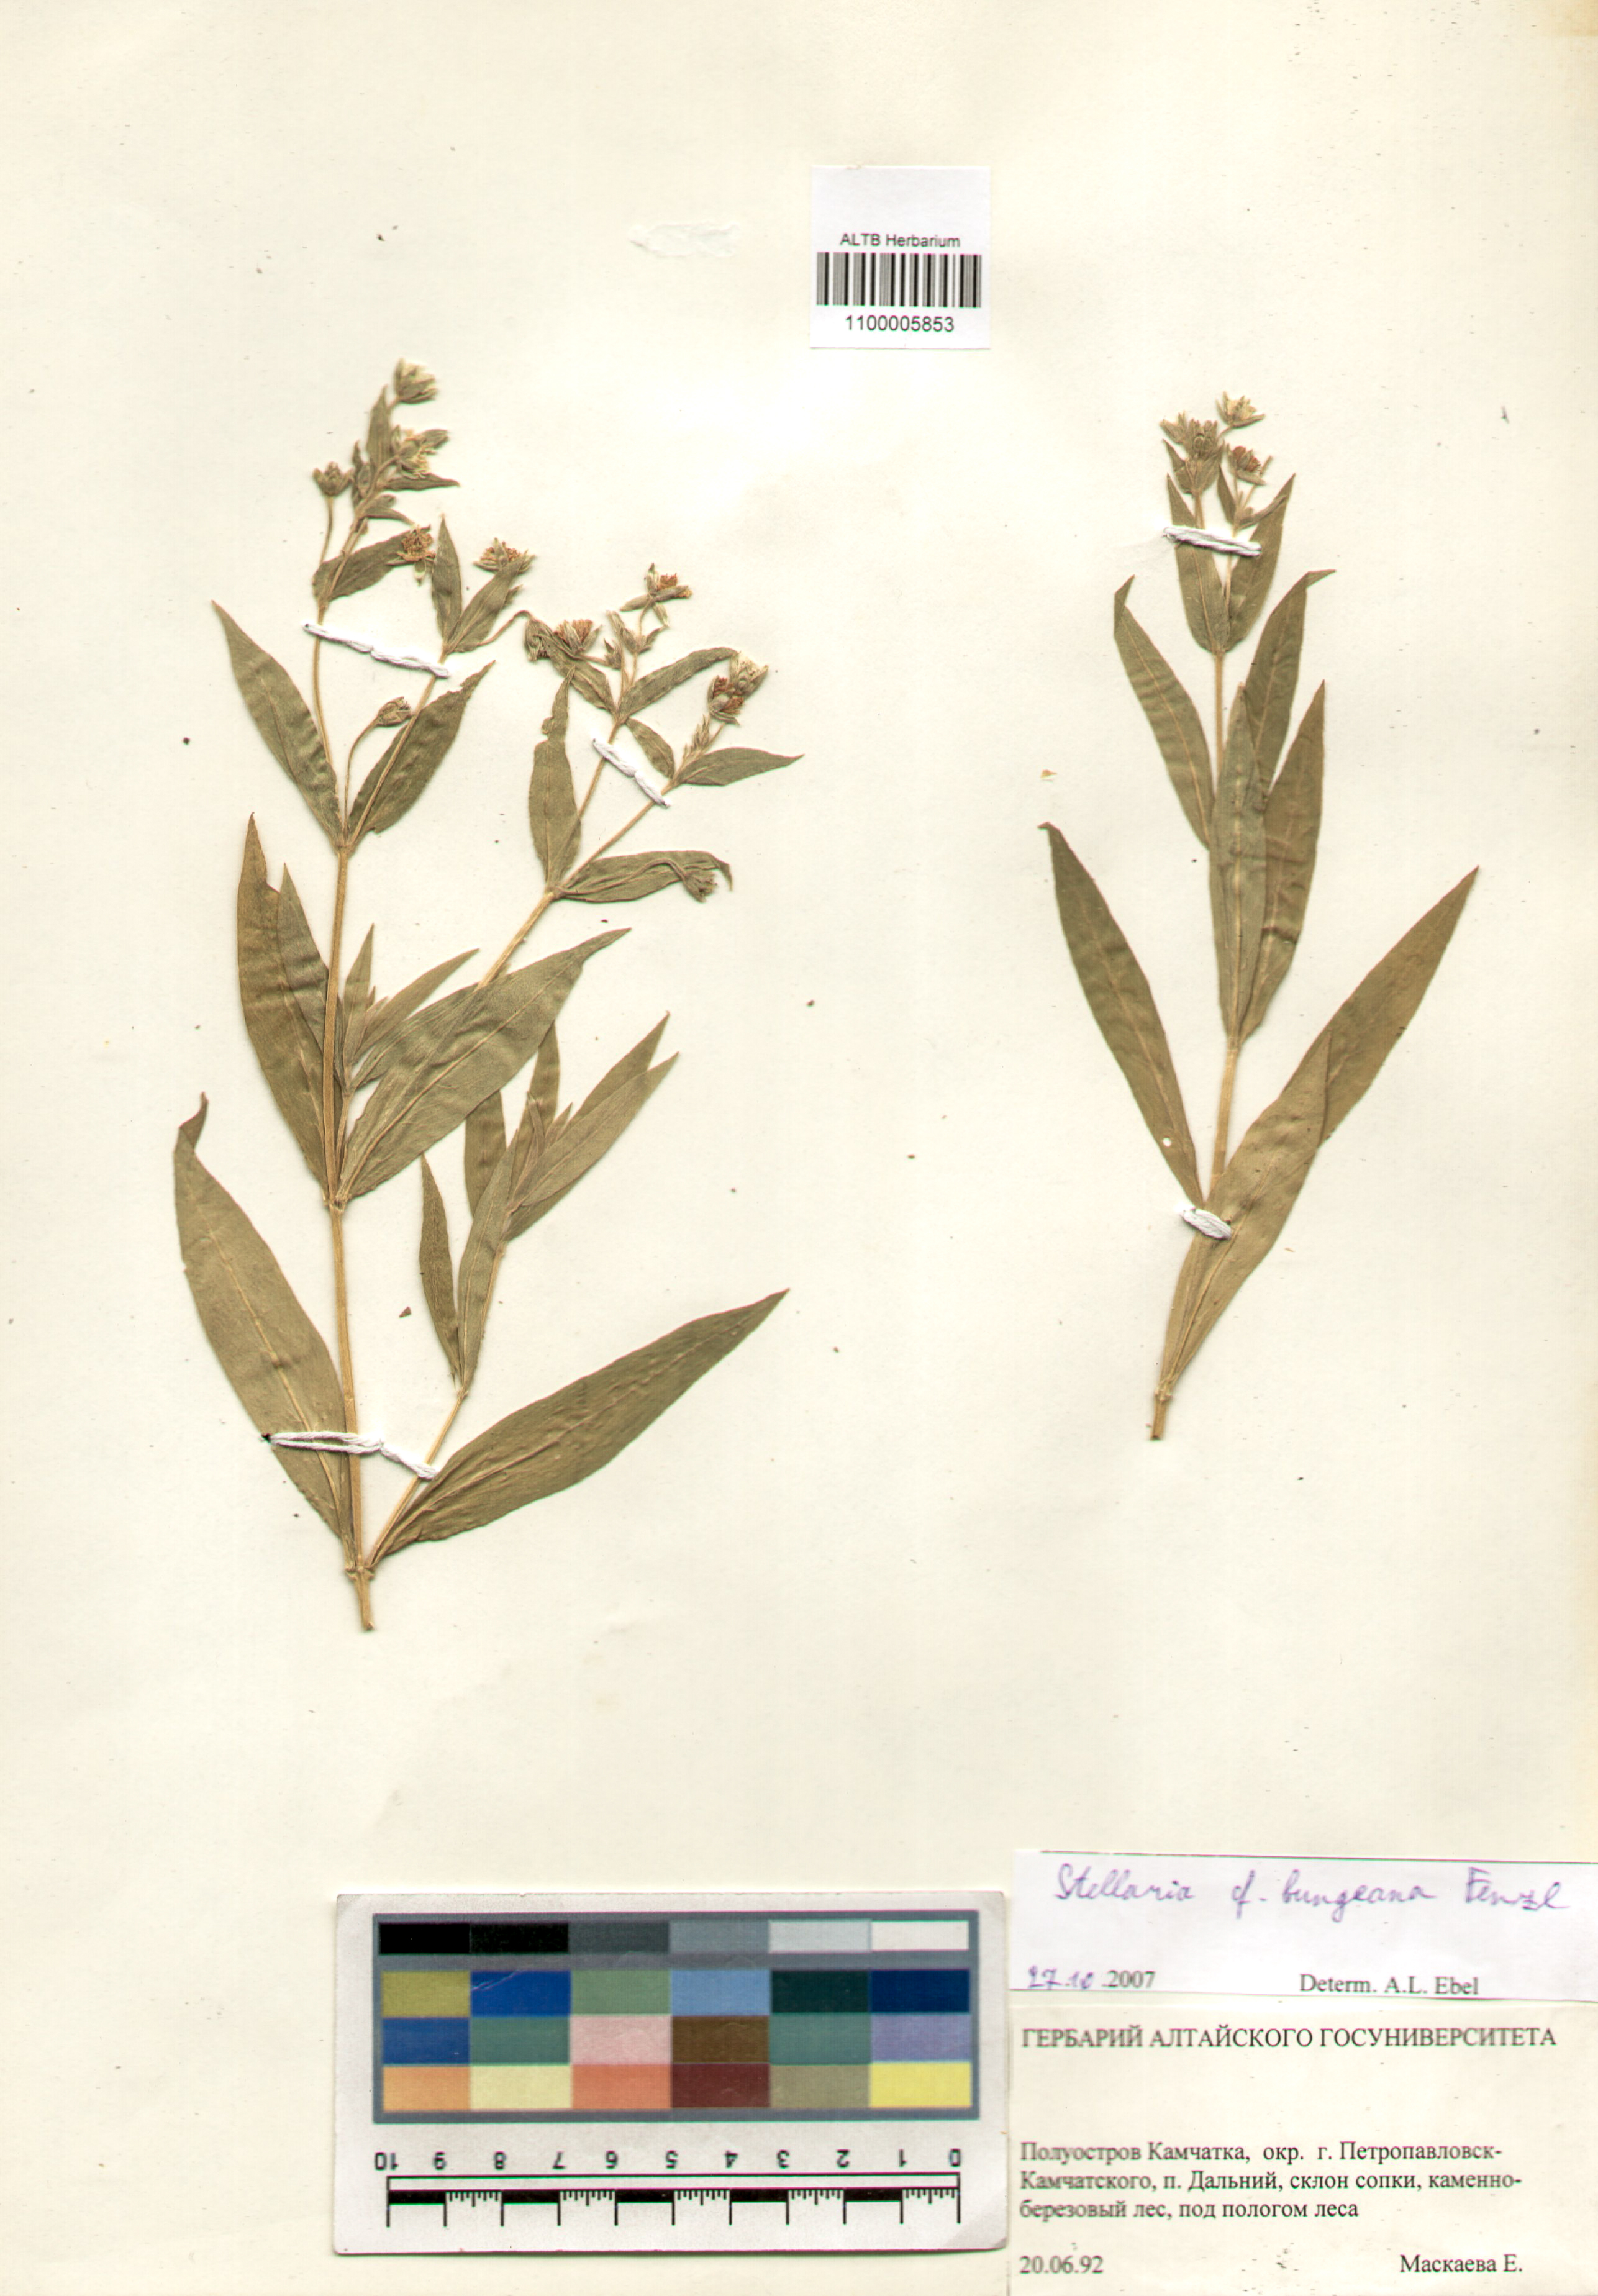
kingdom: Plantae
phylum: Tracheophyta
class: Magnoliopsida
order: Caryophyllales
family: Caryophyllaceae
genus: Stellaria
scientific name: Stellaria bungeana
